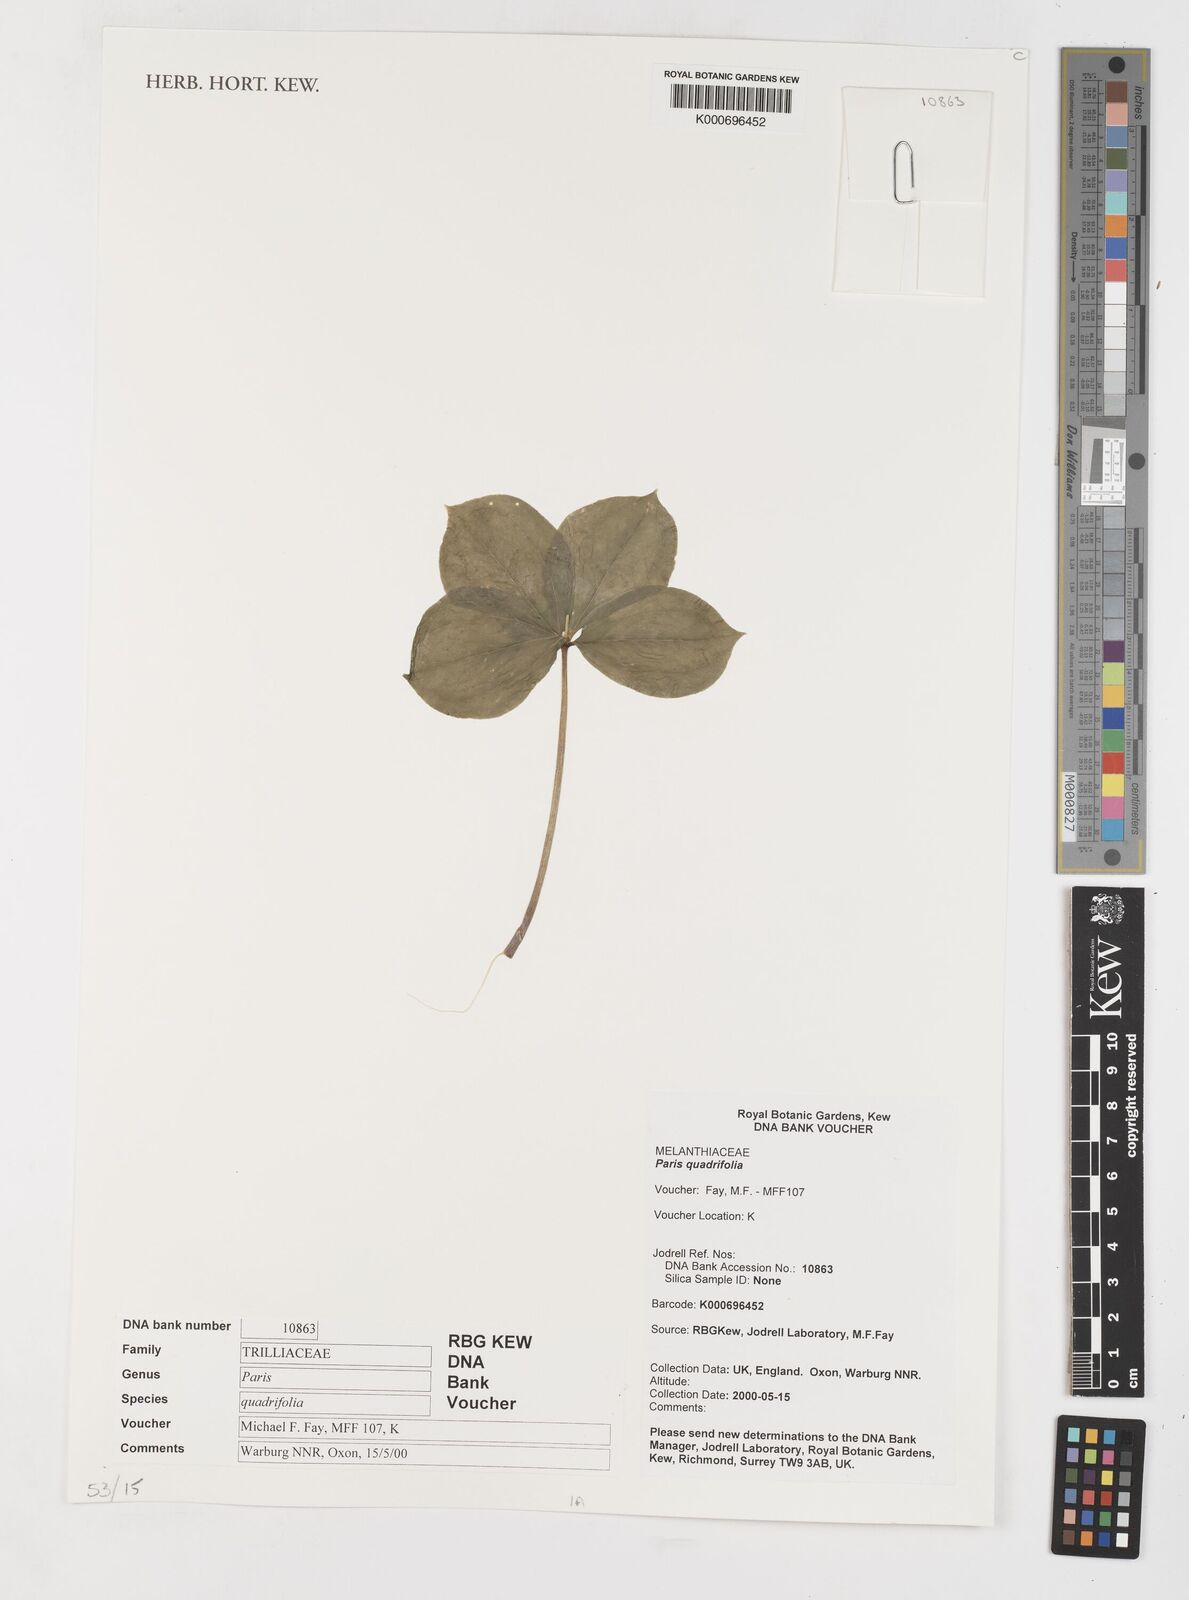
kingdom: Plantae
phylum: Tracheophyta
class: Liliopsida
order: Liliales
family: Melanthiaceae
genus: Paris
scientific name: Paris quadrifolia
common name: Herb-paris
